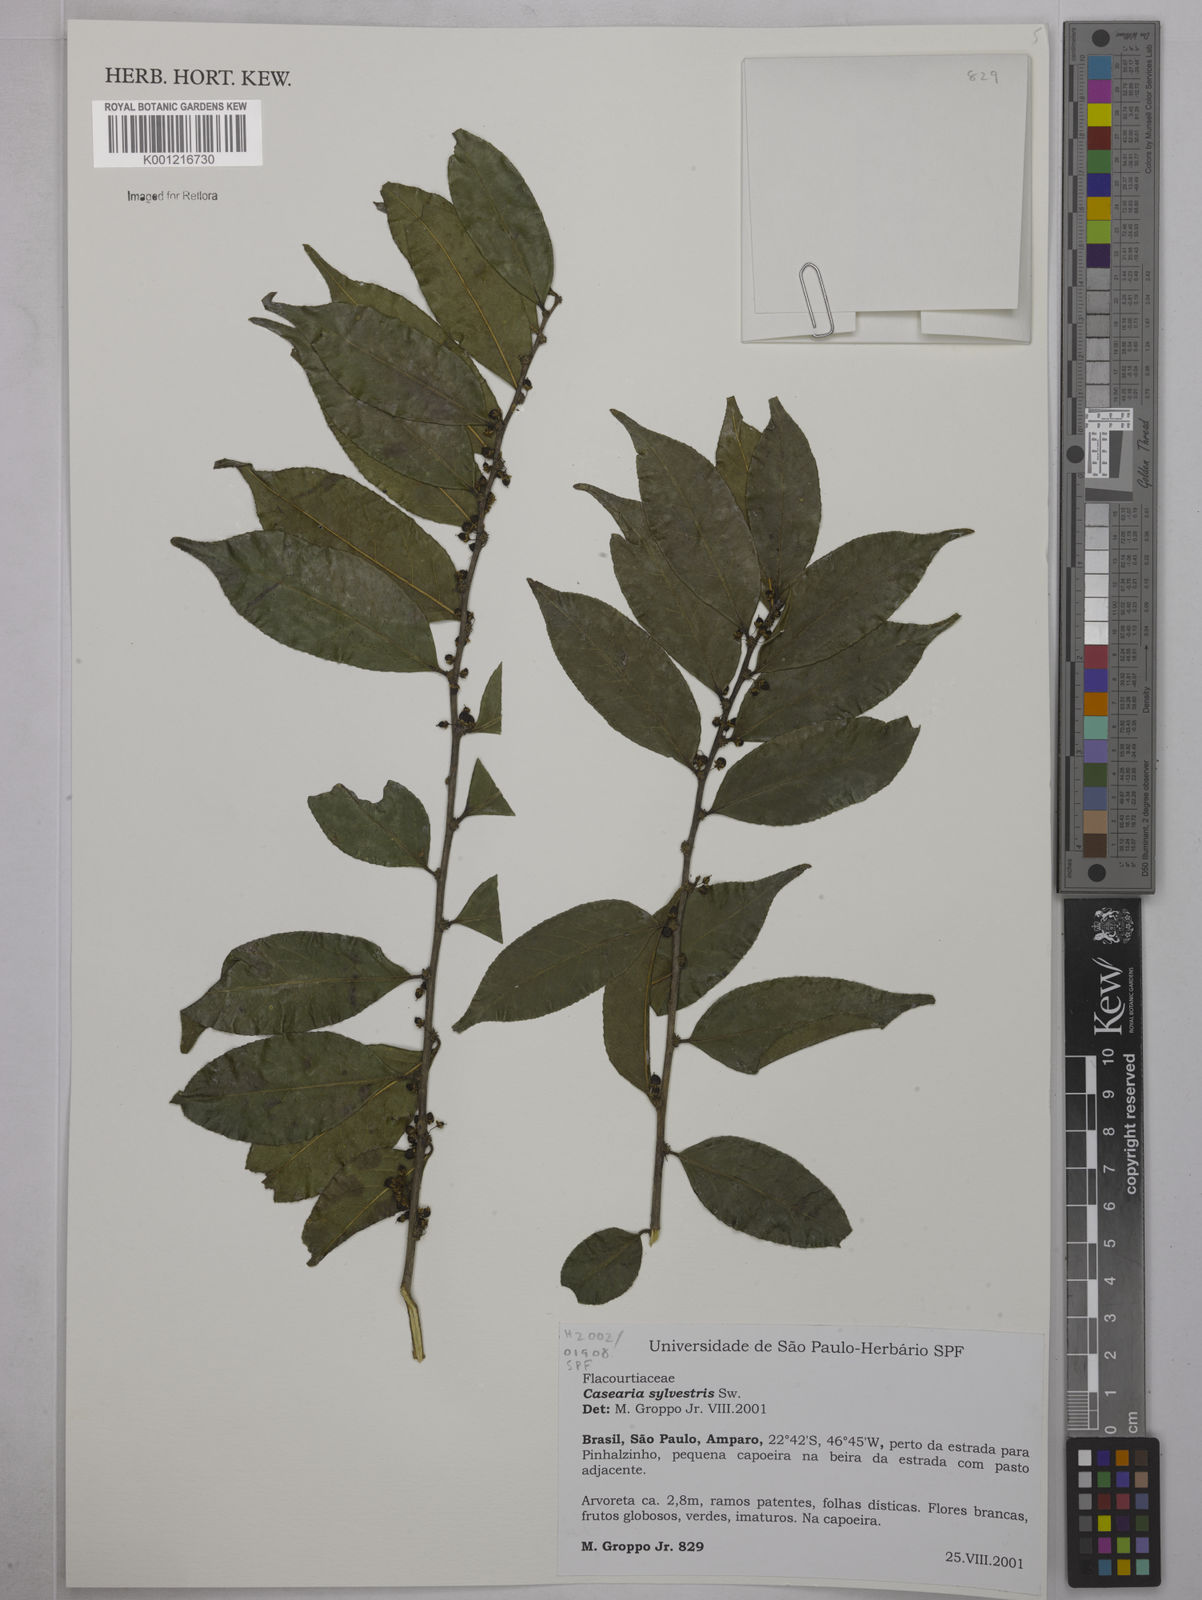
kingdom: Plantae
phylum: Tracheophyta
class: Magnoliopsida
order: Malpighiales
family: Salicaceae
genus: Casearia
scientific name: Casearia sylvestris
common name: Wild sage
